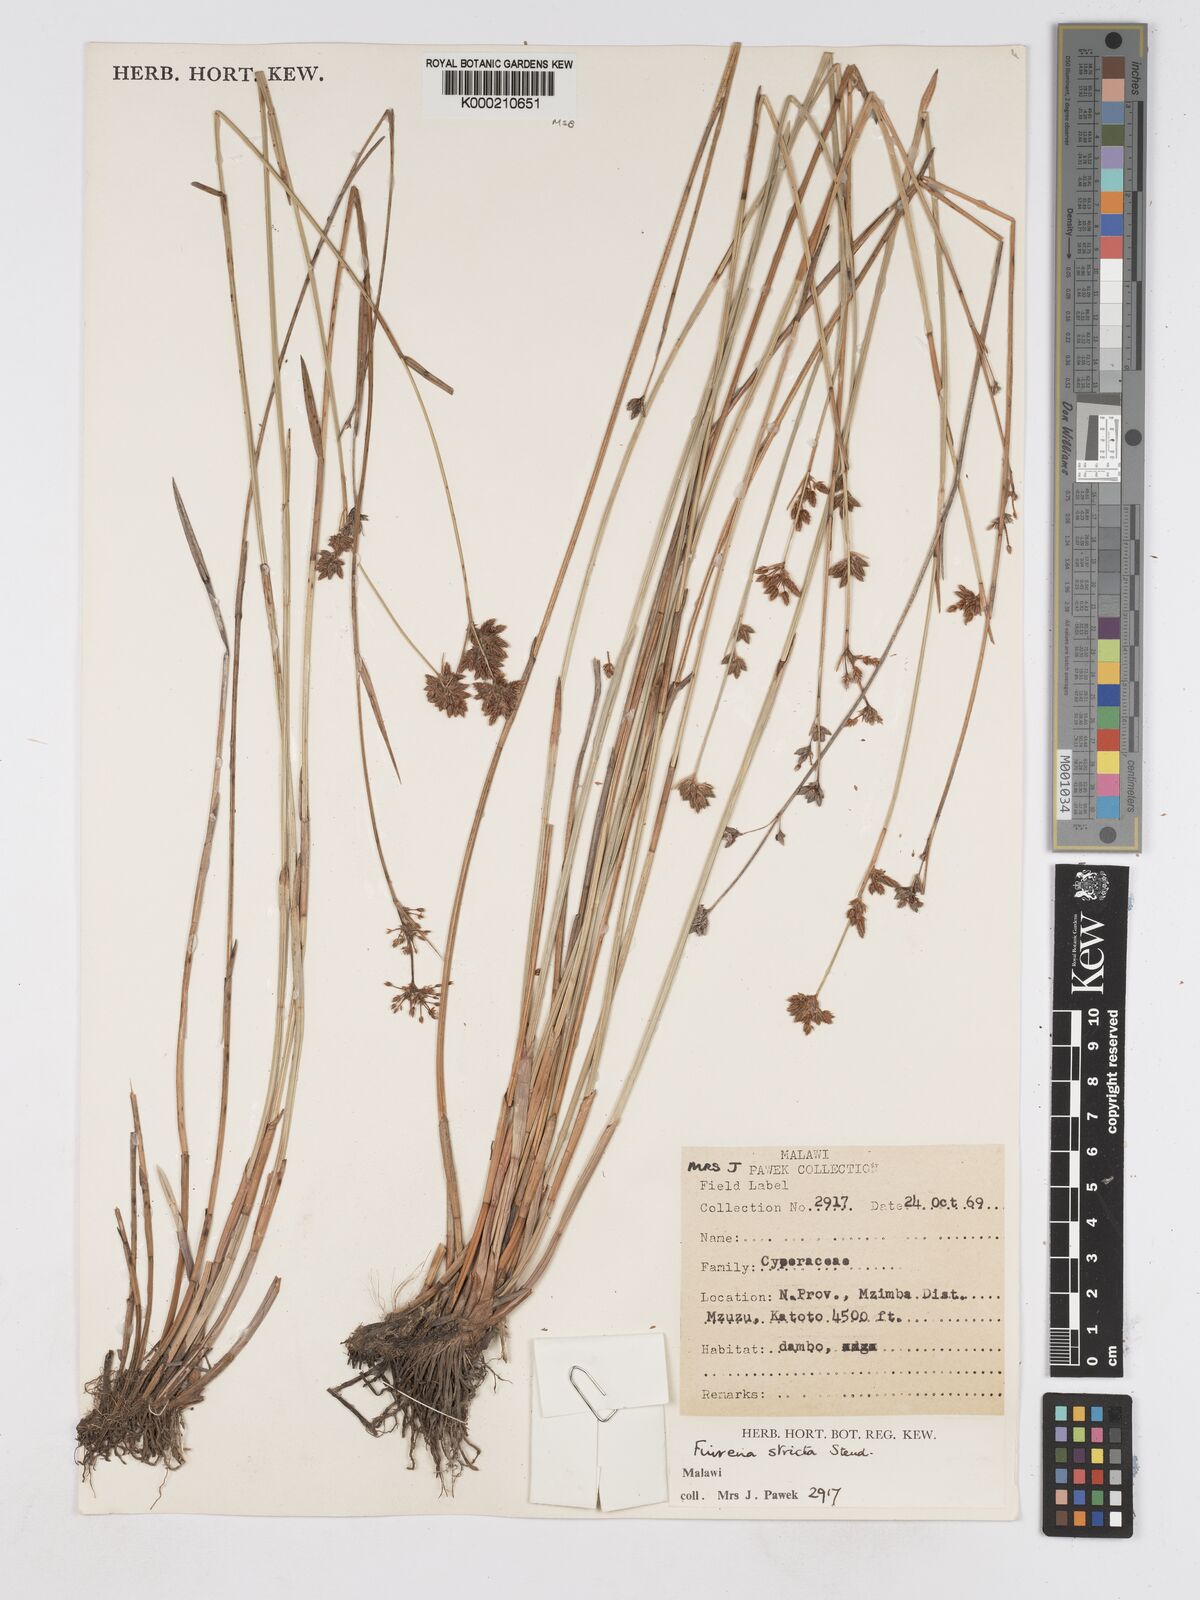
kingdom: Plantae
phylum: Tracheophyta
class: Liliopsida
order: Poales
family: Cyperaceae
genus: Fuirena
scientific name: Fuirena nyasensis
